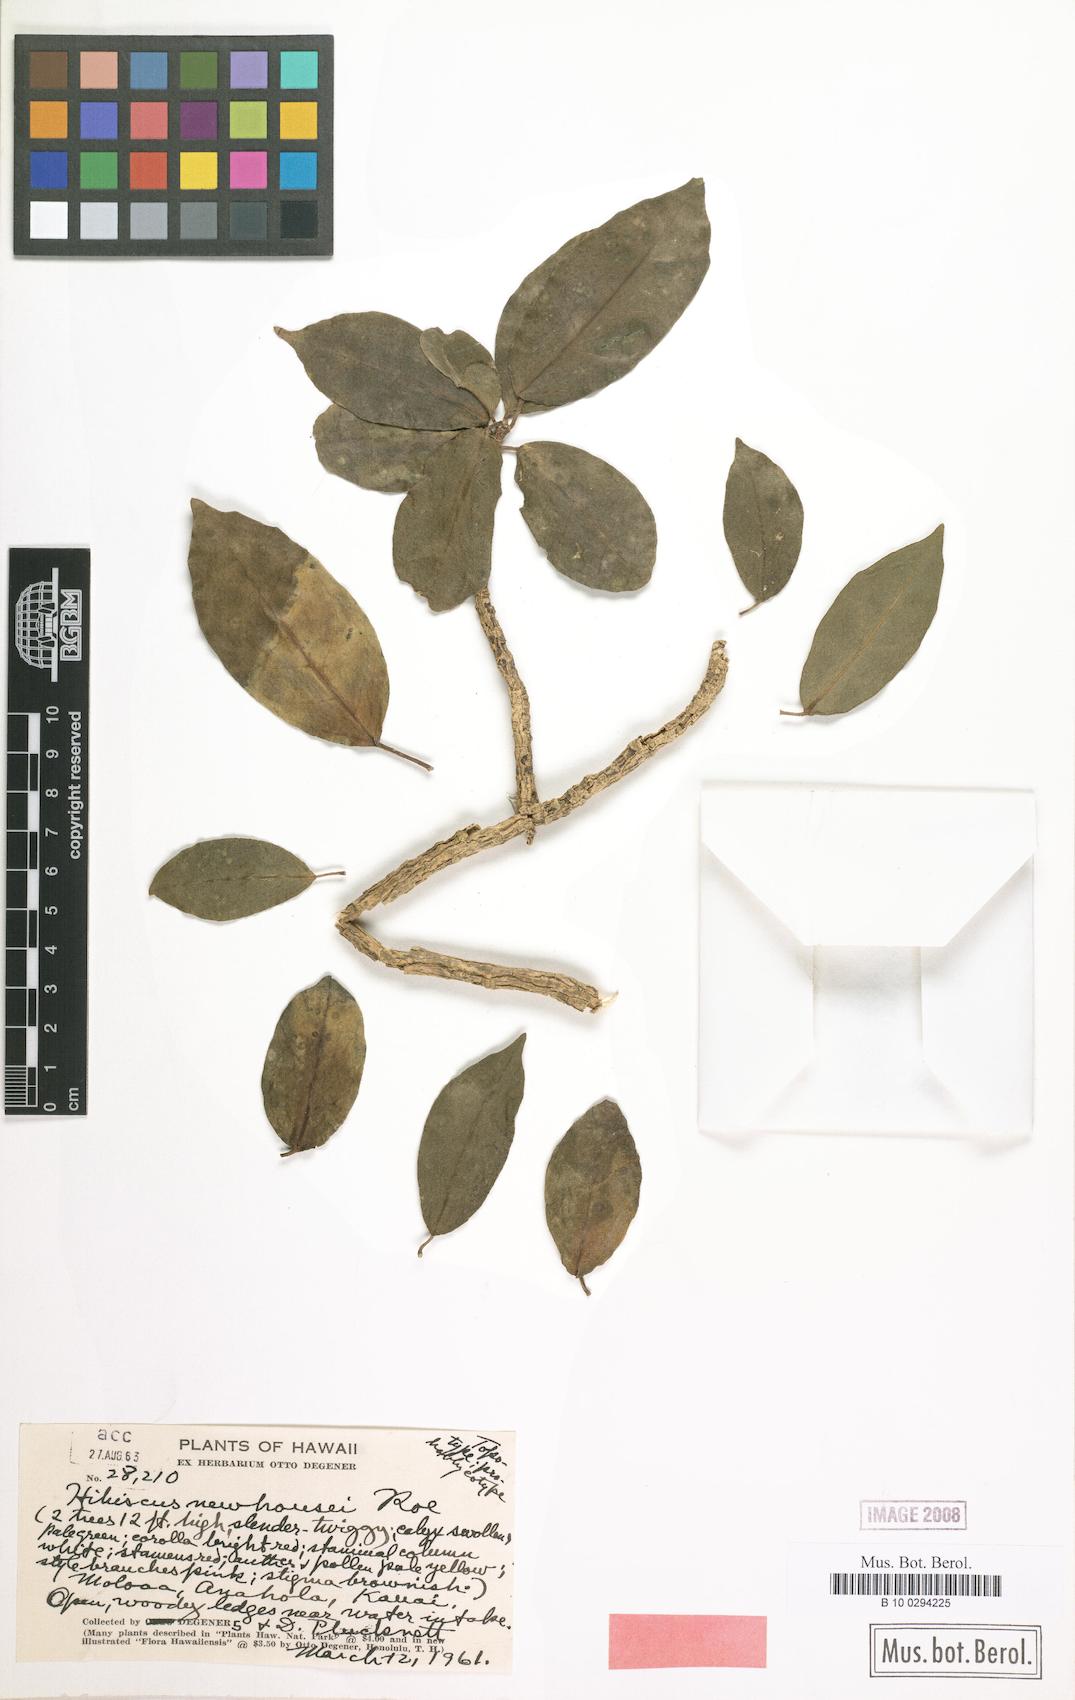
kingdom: Plantae
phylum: Tracheophyta
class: Magnoliopsida
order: Malvales
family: Malvaceae
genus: Hibiscus
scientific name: Hibiscus clayi
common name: Clay's hibiscus
